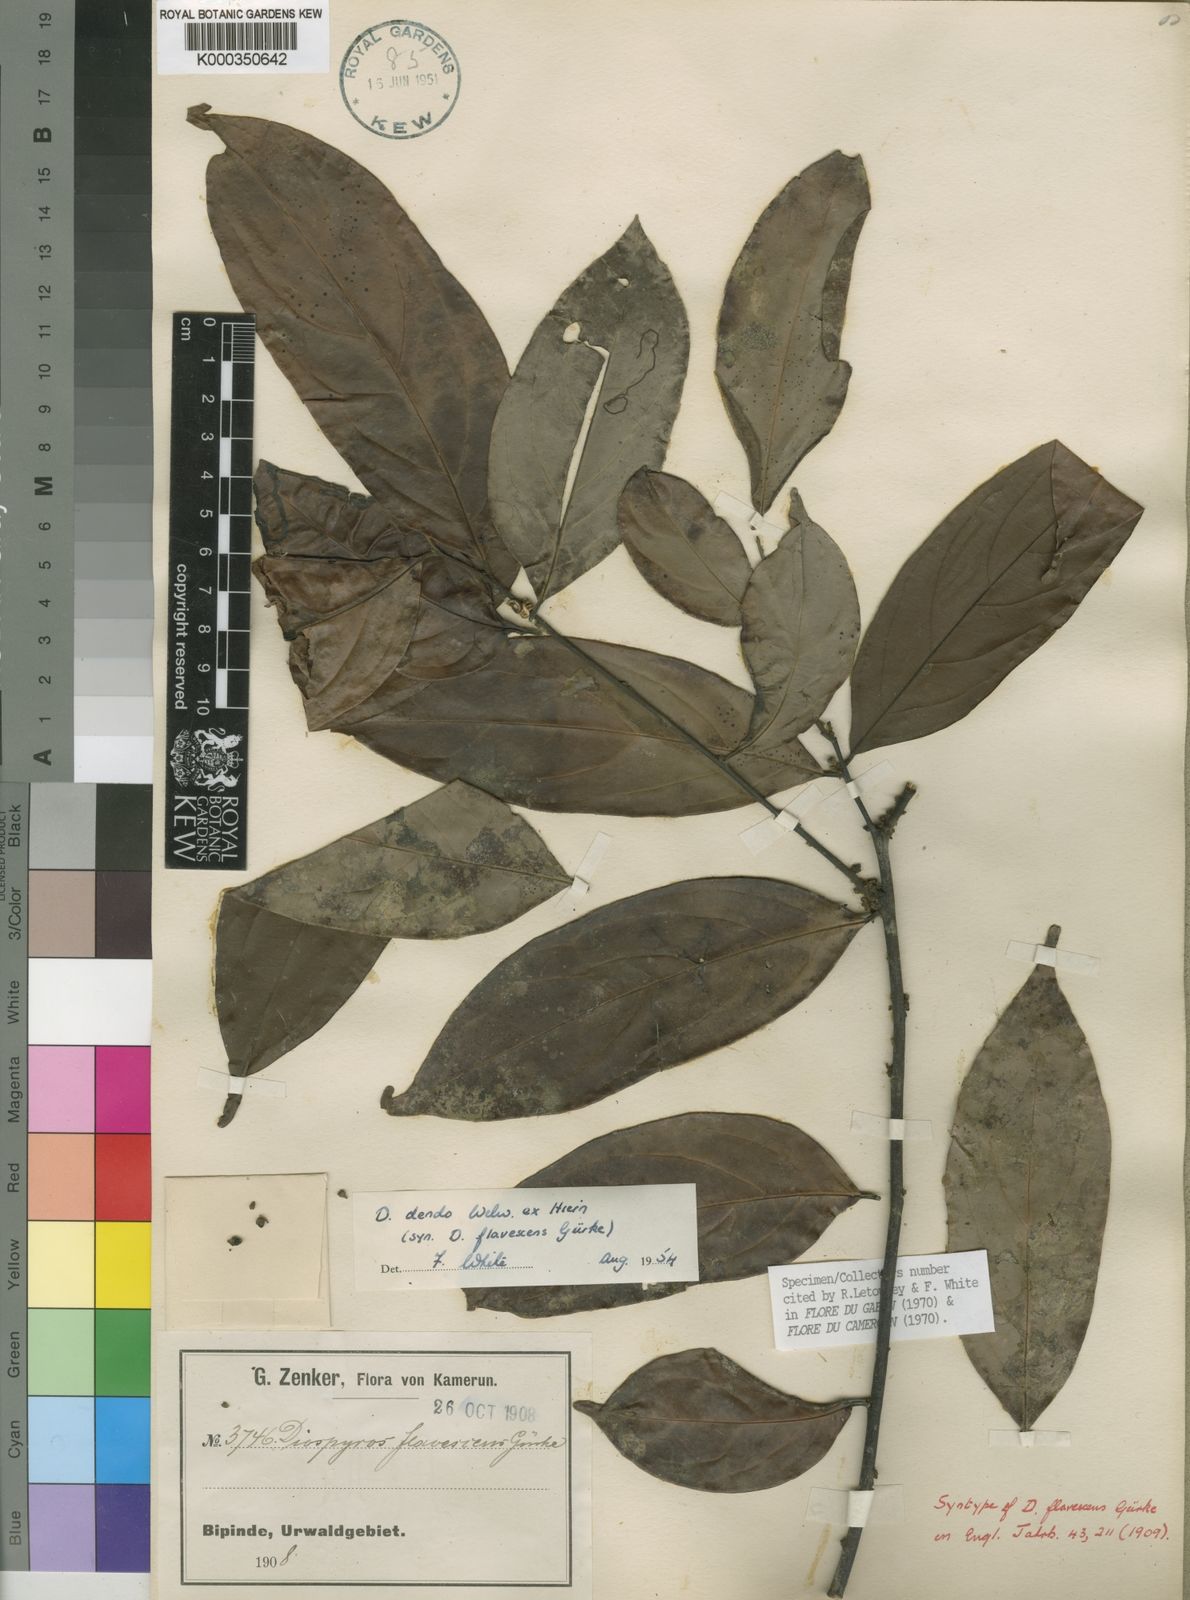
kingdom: Plantae
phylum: Tracheophyta
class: Magnoliopsida
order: Ericales
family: Ebenaceae
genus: Diospyros
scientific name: Diospyros dendo
